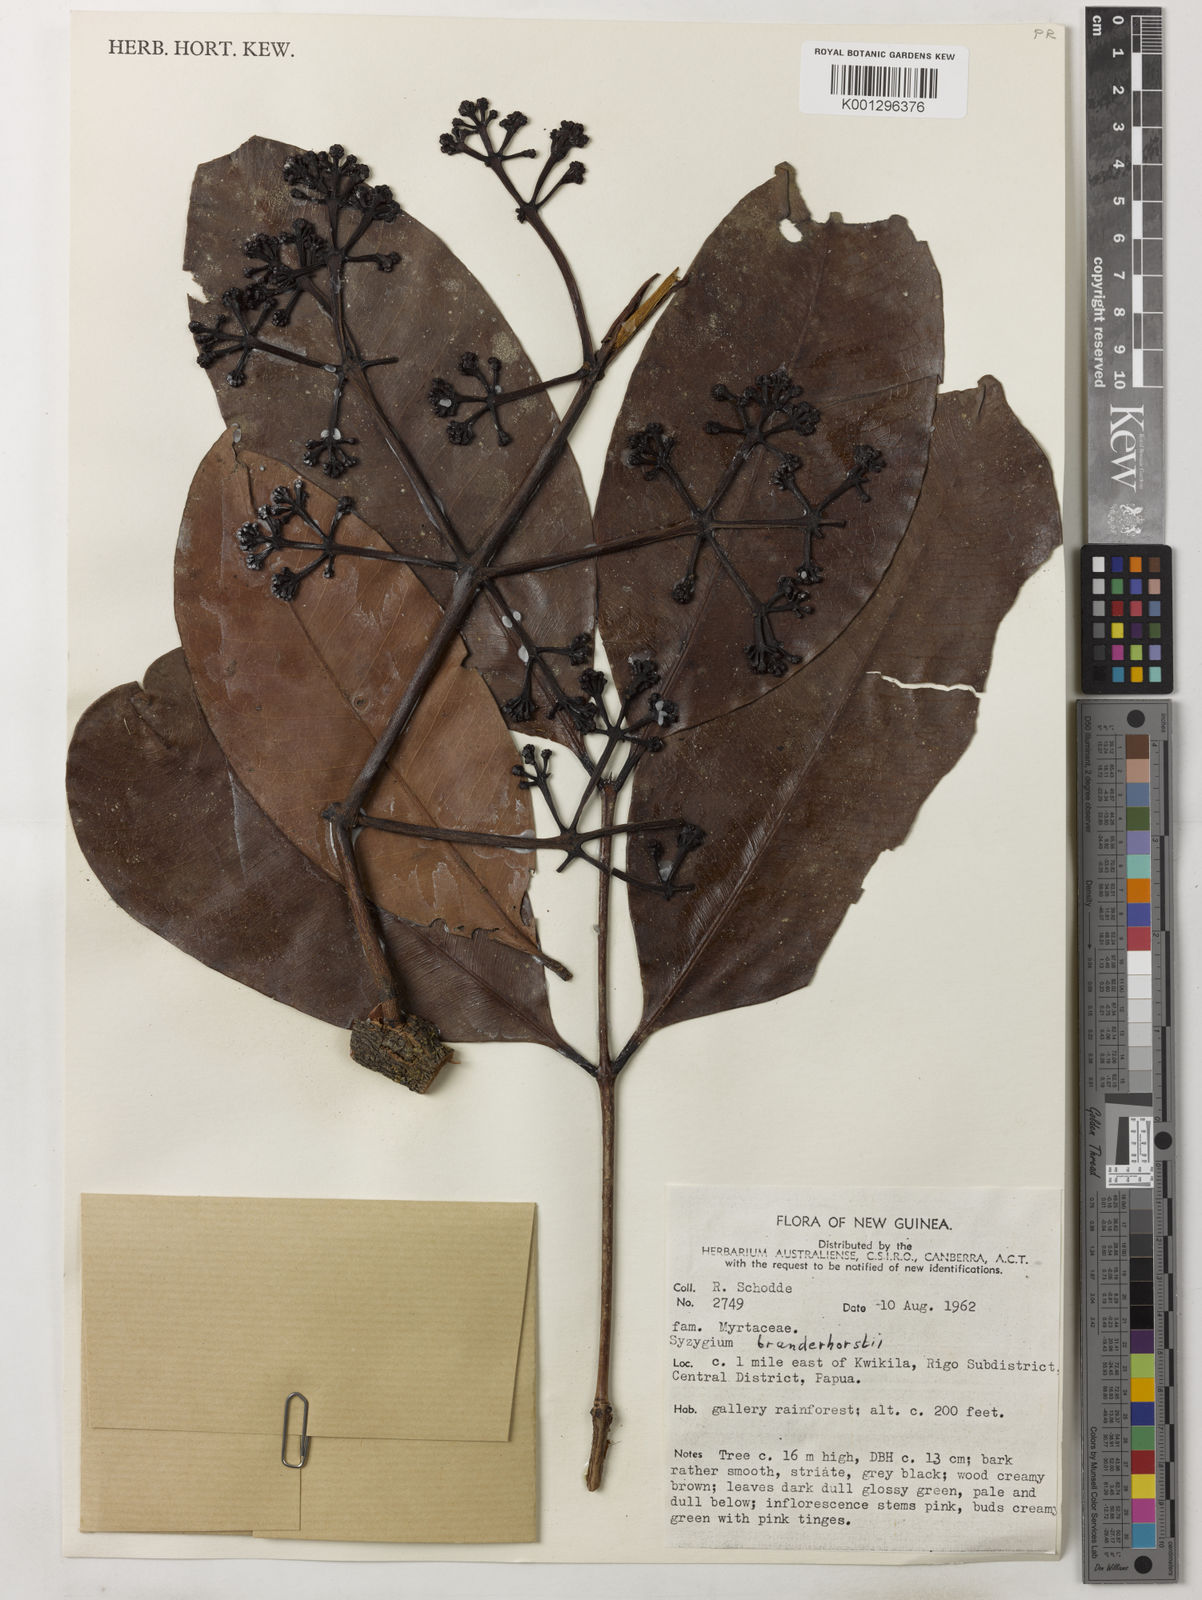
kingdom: Plantae
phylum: Tracheophyta
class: Magnoliopsida
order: Myrtales
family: Myrtaceae
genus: Syzygium
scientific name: Syzygium branderhorstii
